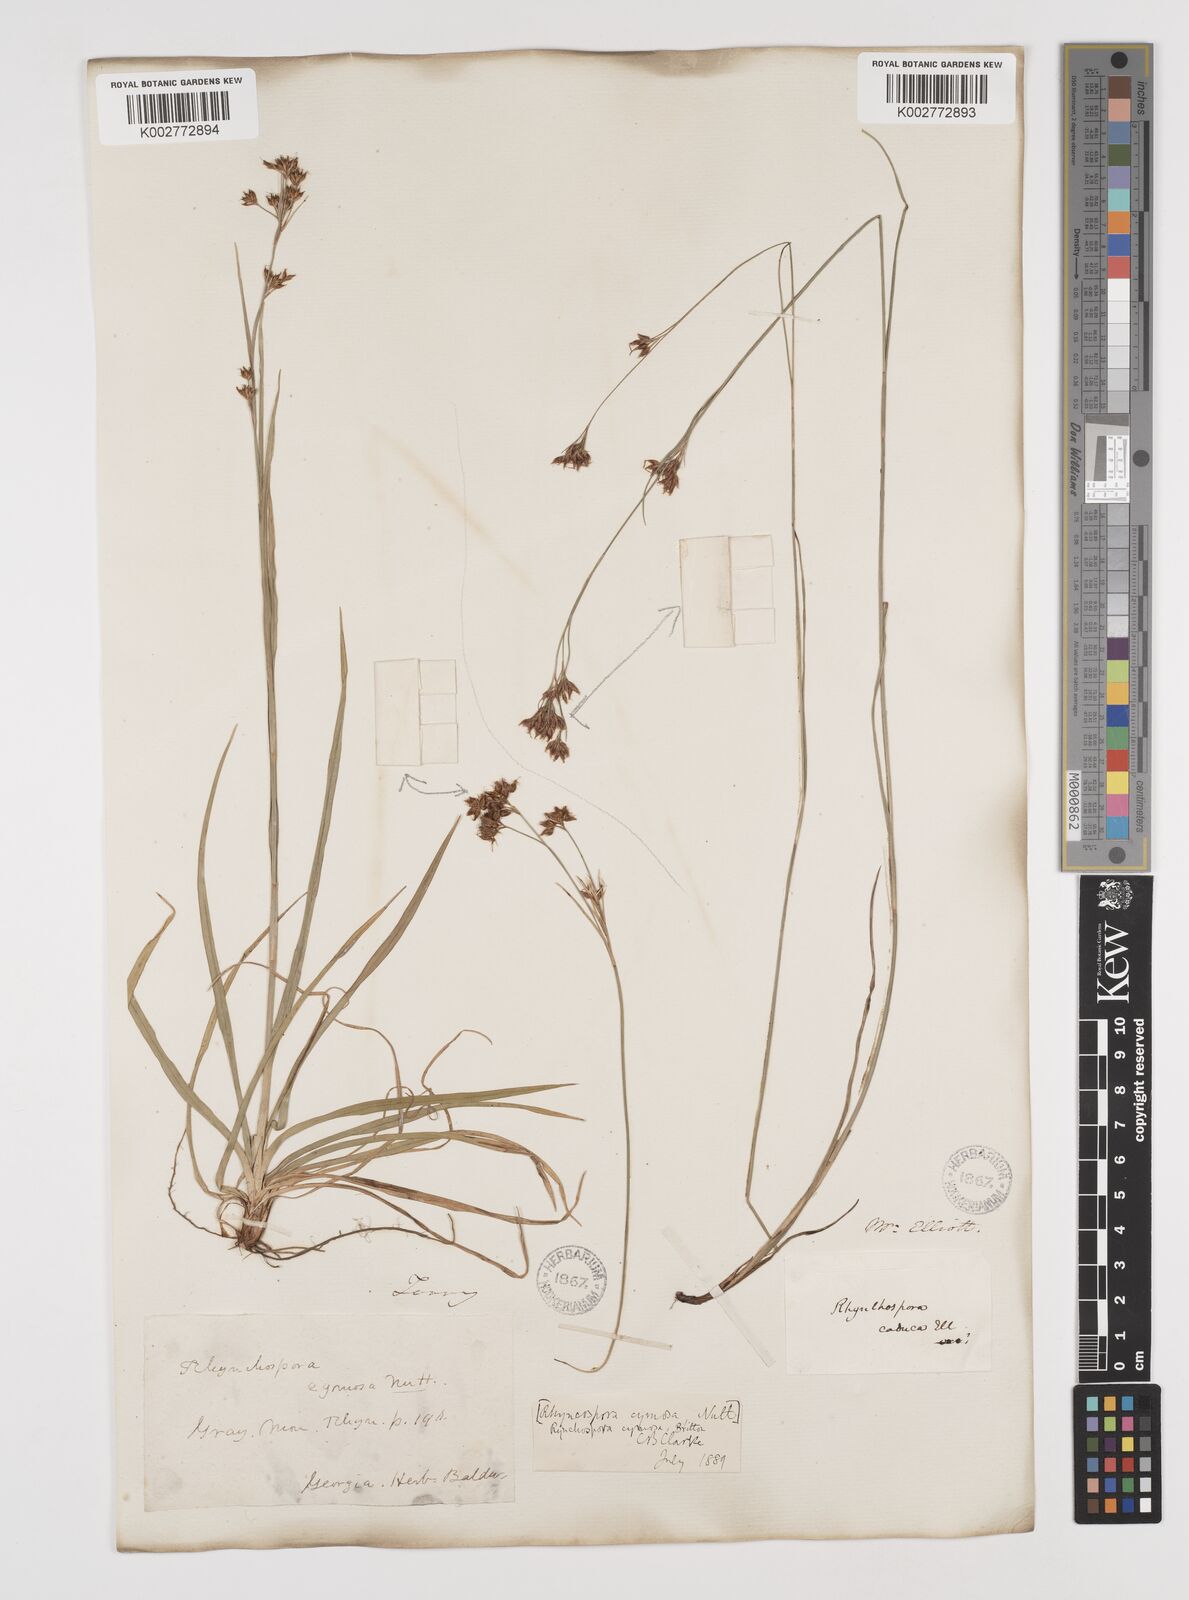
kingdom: Plantae
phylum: Tracheophyta
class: Liliopsida
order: Poales
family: Cyperaceae
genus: Scirpus
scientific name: Scirpus polyphyllus
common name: Leafy bulrush
